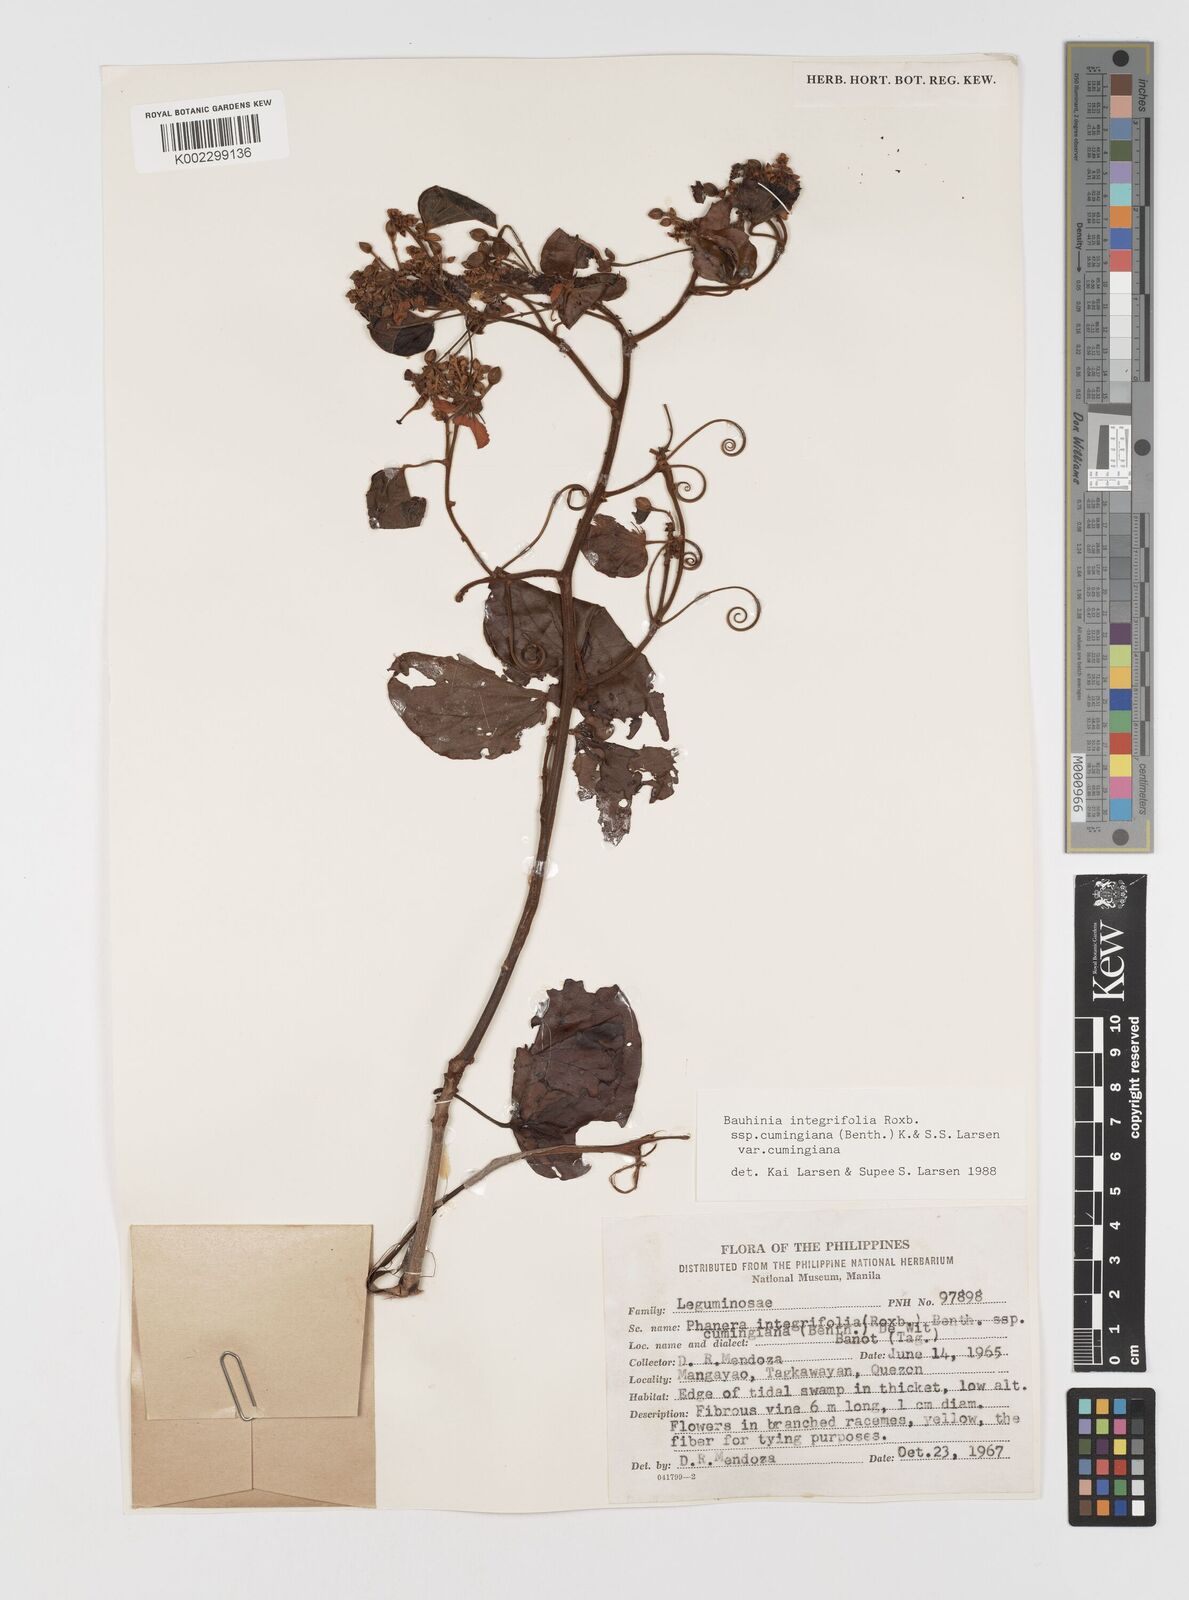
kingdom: Plantae
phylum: Tracheophyta
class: Magnoliopsida
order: Fabales
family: Fabaceae
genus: Phanera
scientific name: Phanera integrifolia
